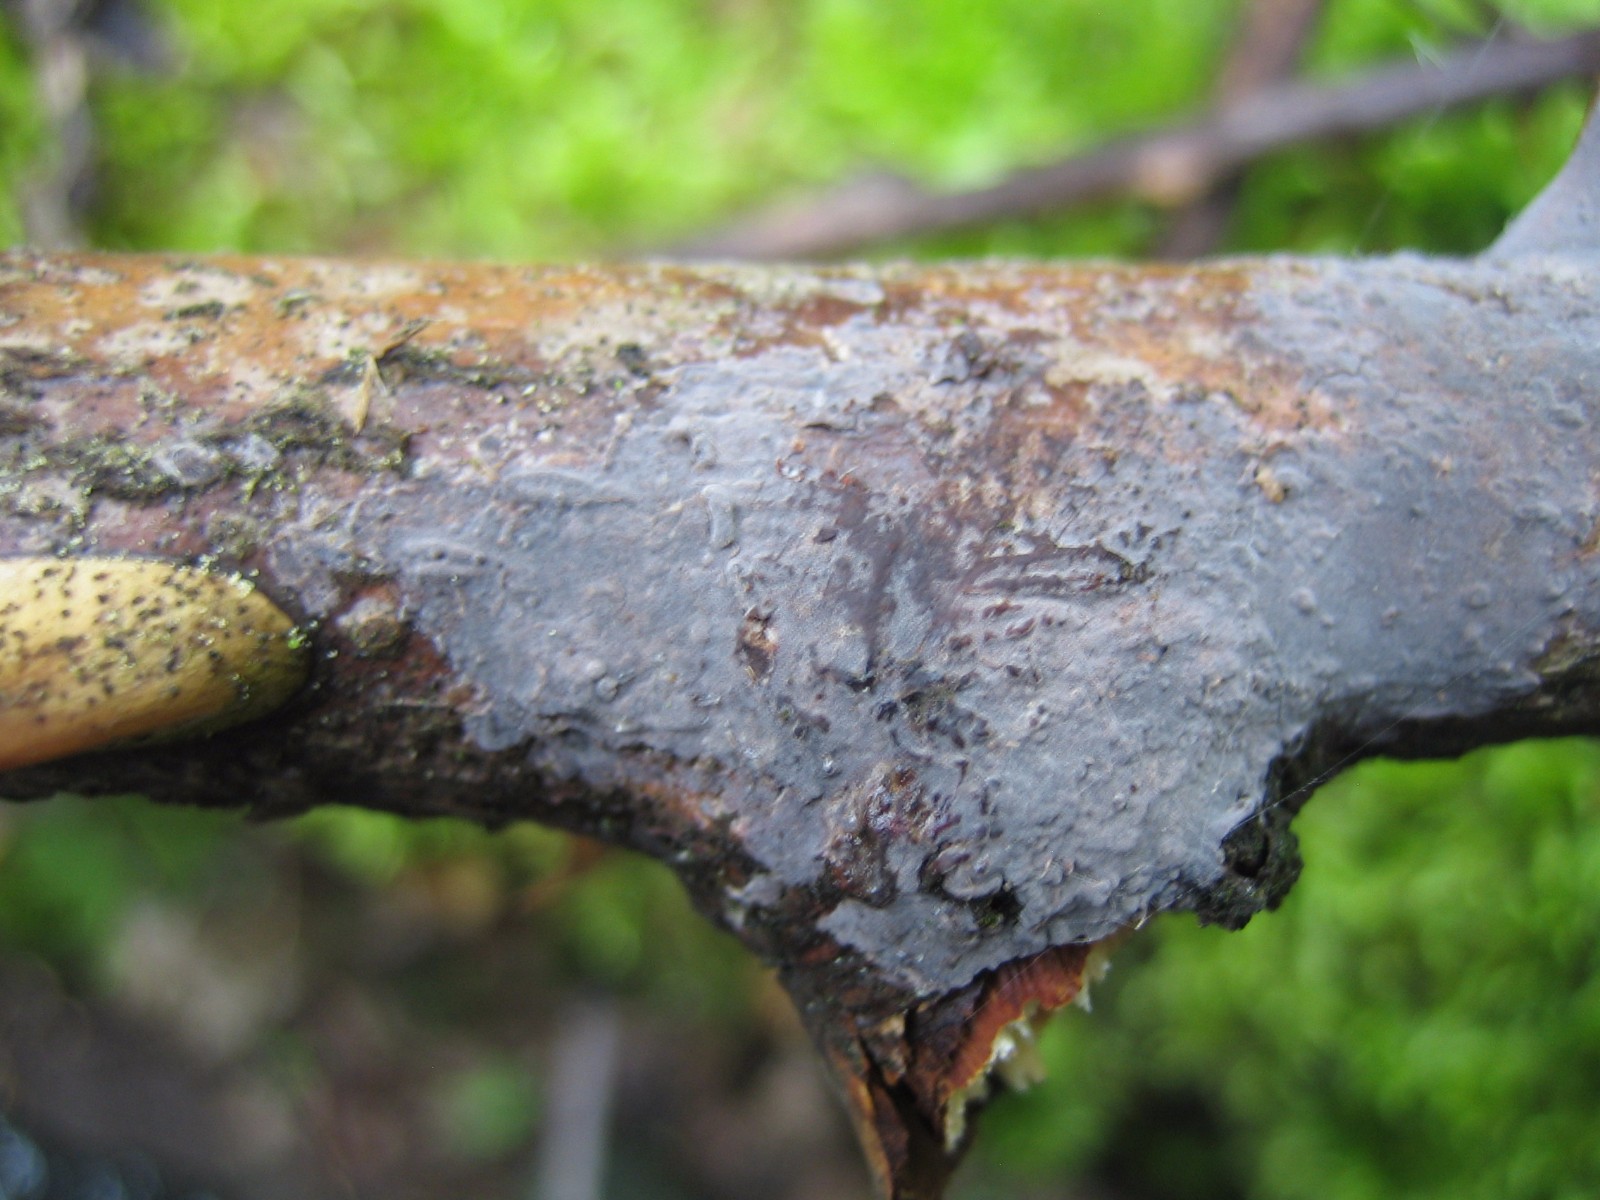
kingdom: Fungi
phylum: Basidiomycota
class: Agaricomycetes
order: Russulales
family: Peniophoraceae
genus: Peniophora
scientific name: Peniophora
